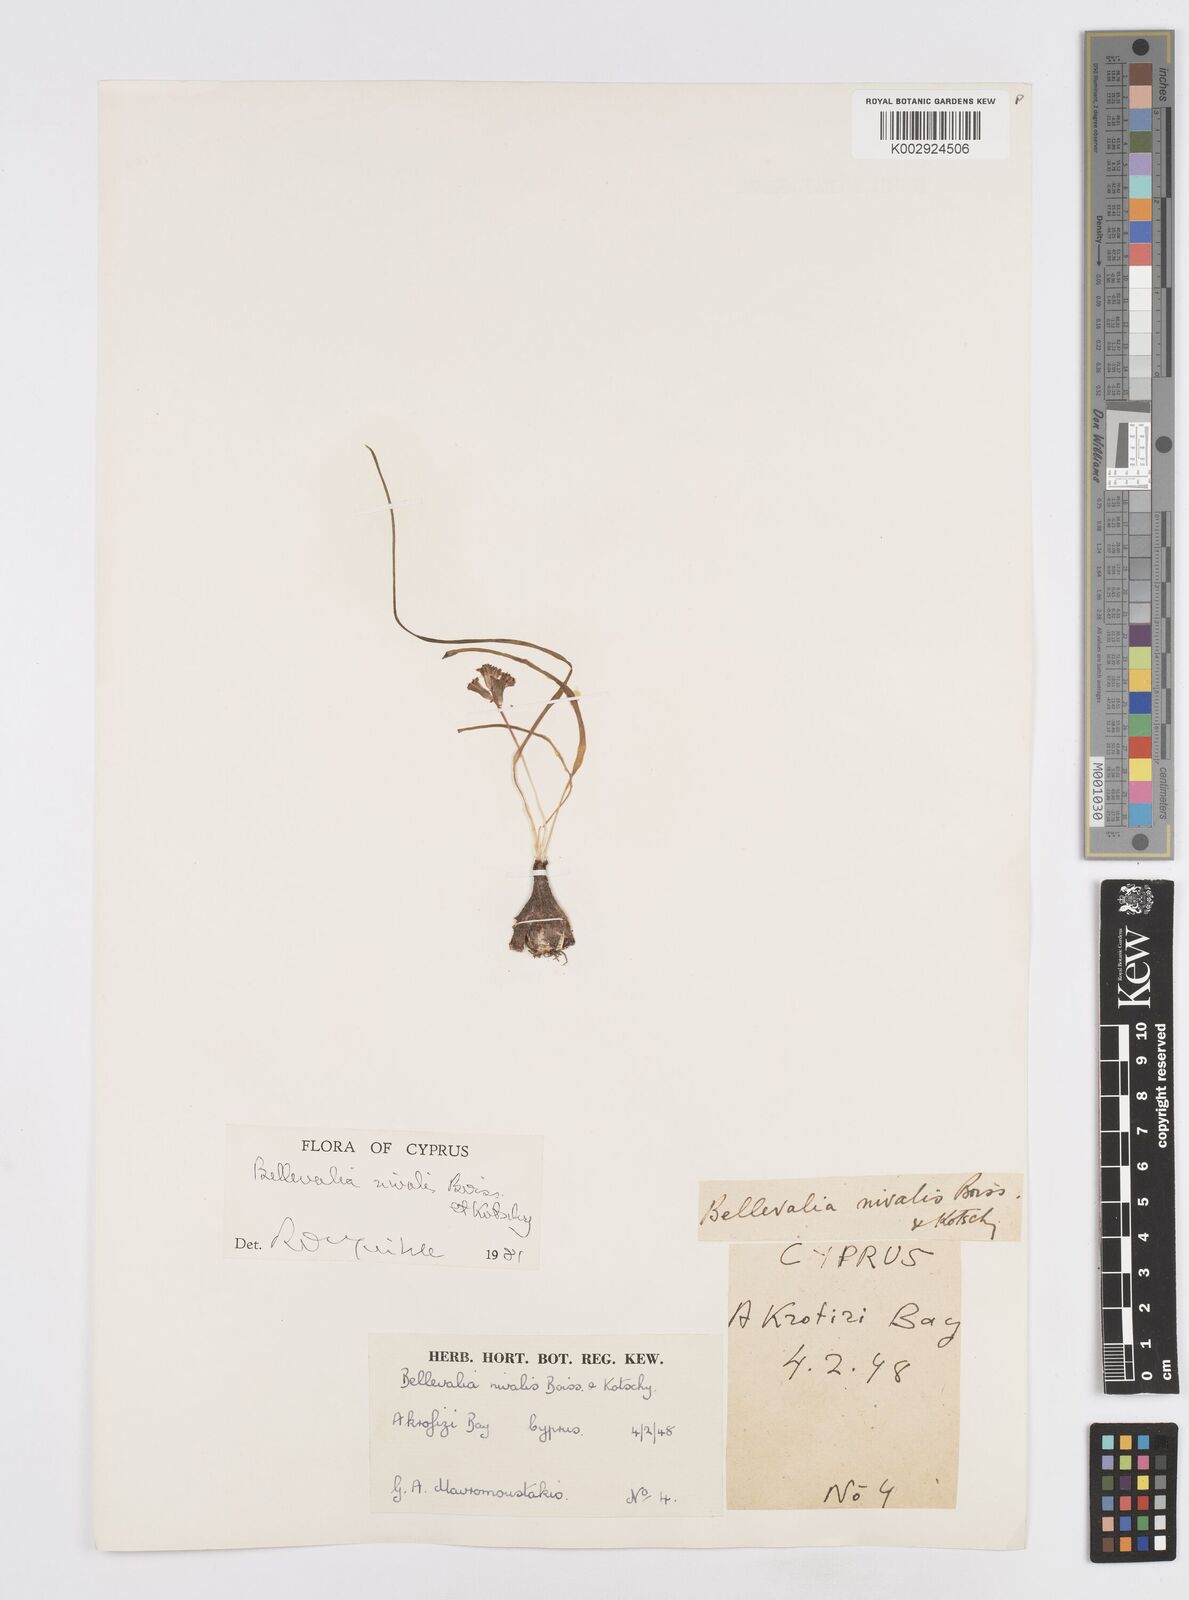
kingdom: Plantae
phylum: Tracheophyta
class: Liliopsida
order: Asparagales
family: Asparagaceae
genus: Bellevalia
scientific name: Bellevalia nivalis
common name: Snow bellevalia
